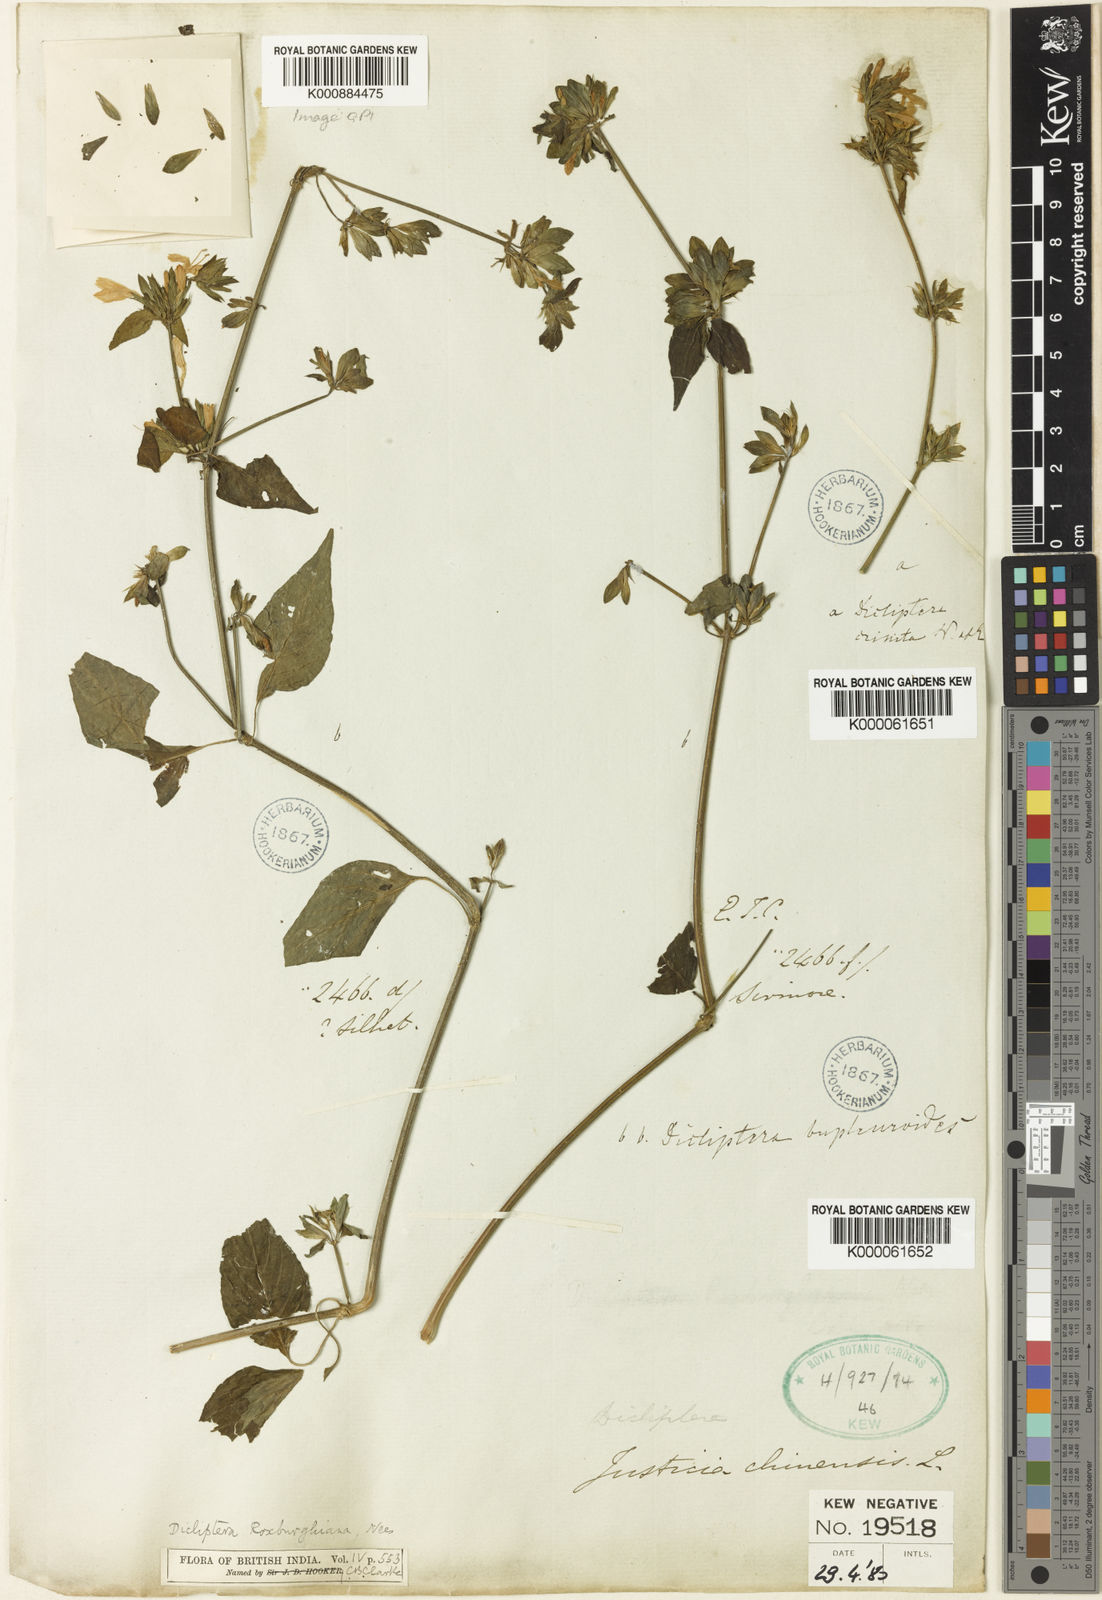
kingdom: Plantae
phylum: Tracheophyta
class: Magnoliopsida
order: Lamiales
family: Acanthaceae
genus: Dicliptera
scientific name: Dicliptera bupleuroides
